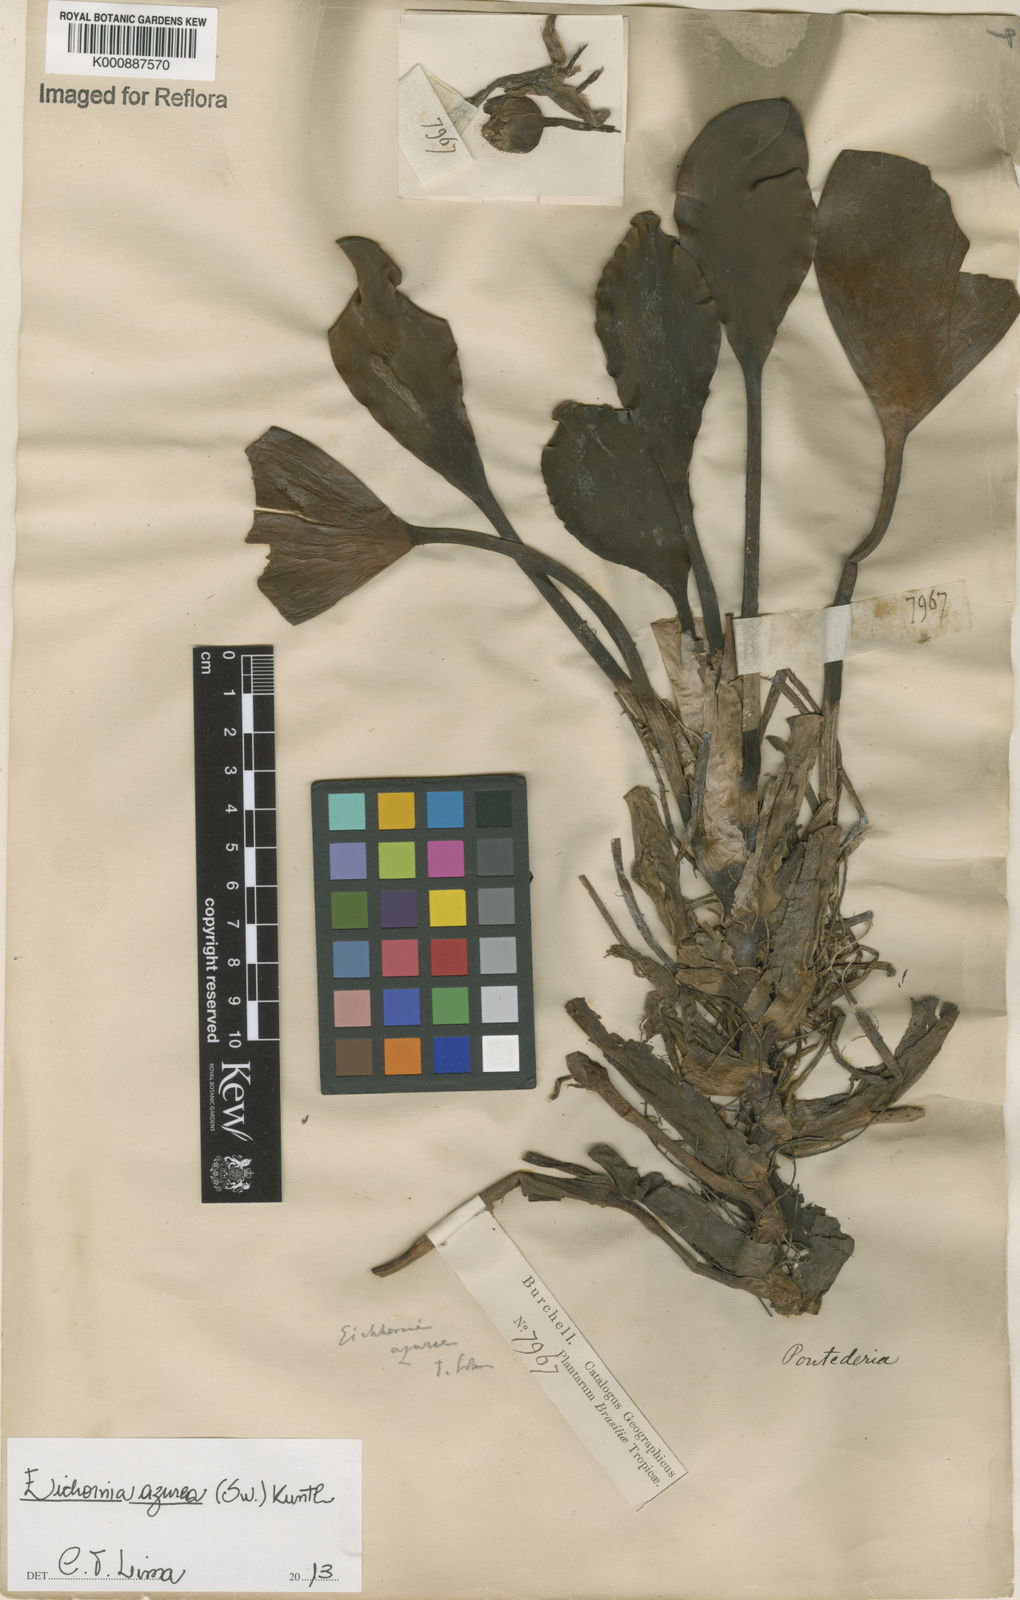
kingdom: Plantae
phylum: Tracheophyta
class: Liliopsida
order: Commelinales
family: Pontederiaceae
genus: Pontederia
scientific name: Pontederia azurea
